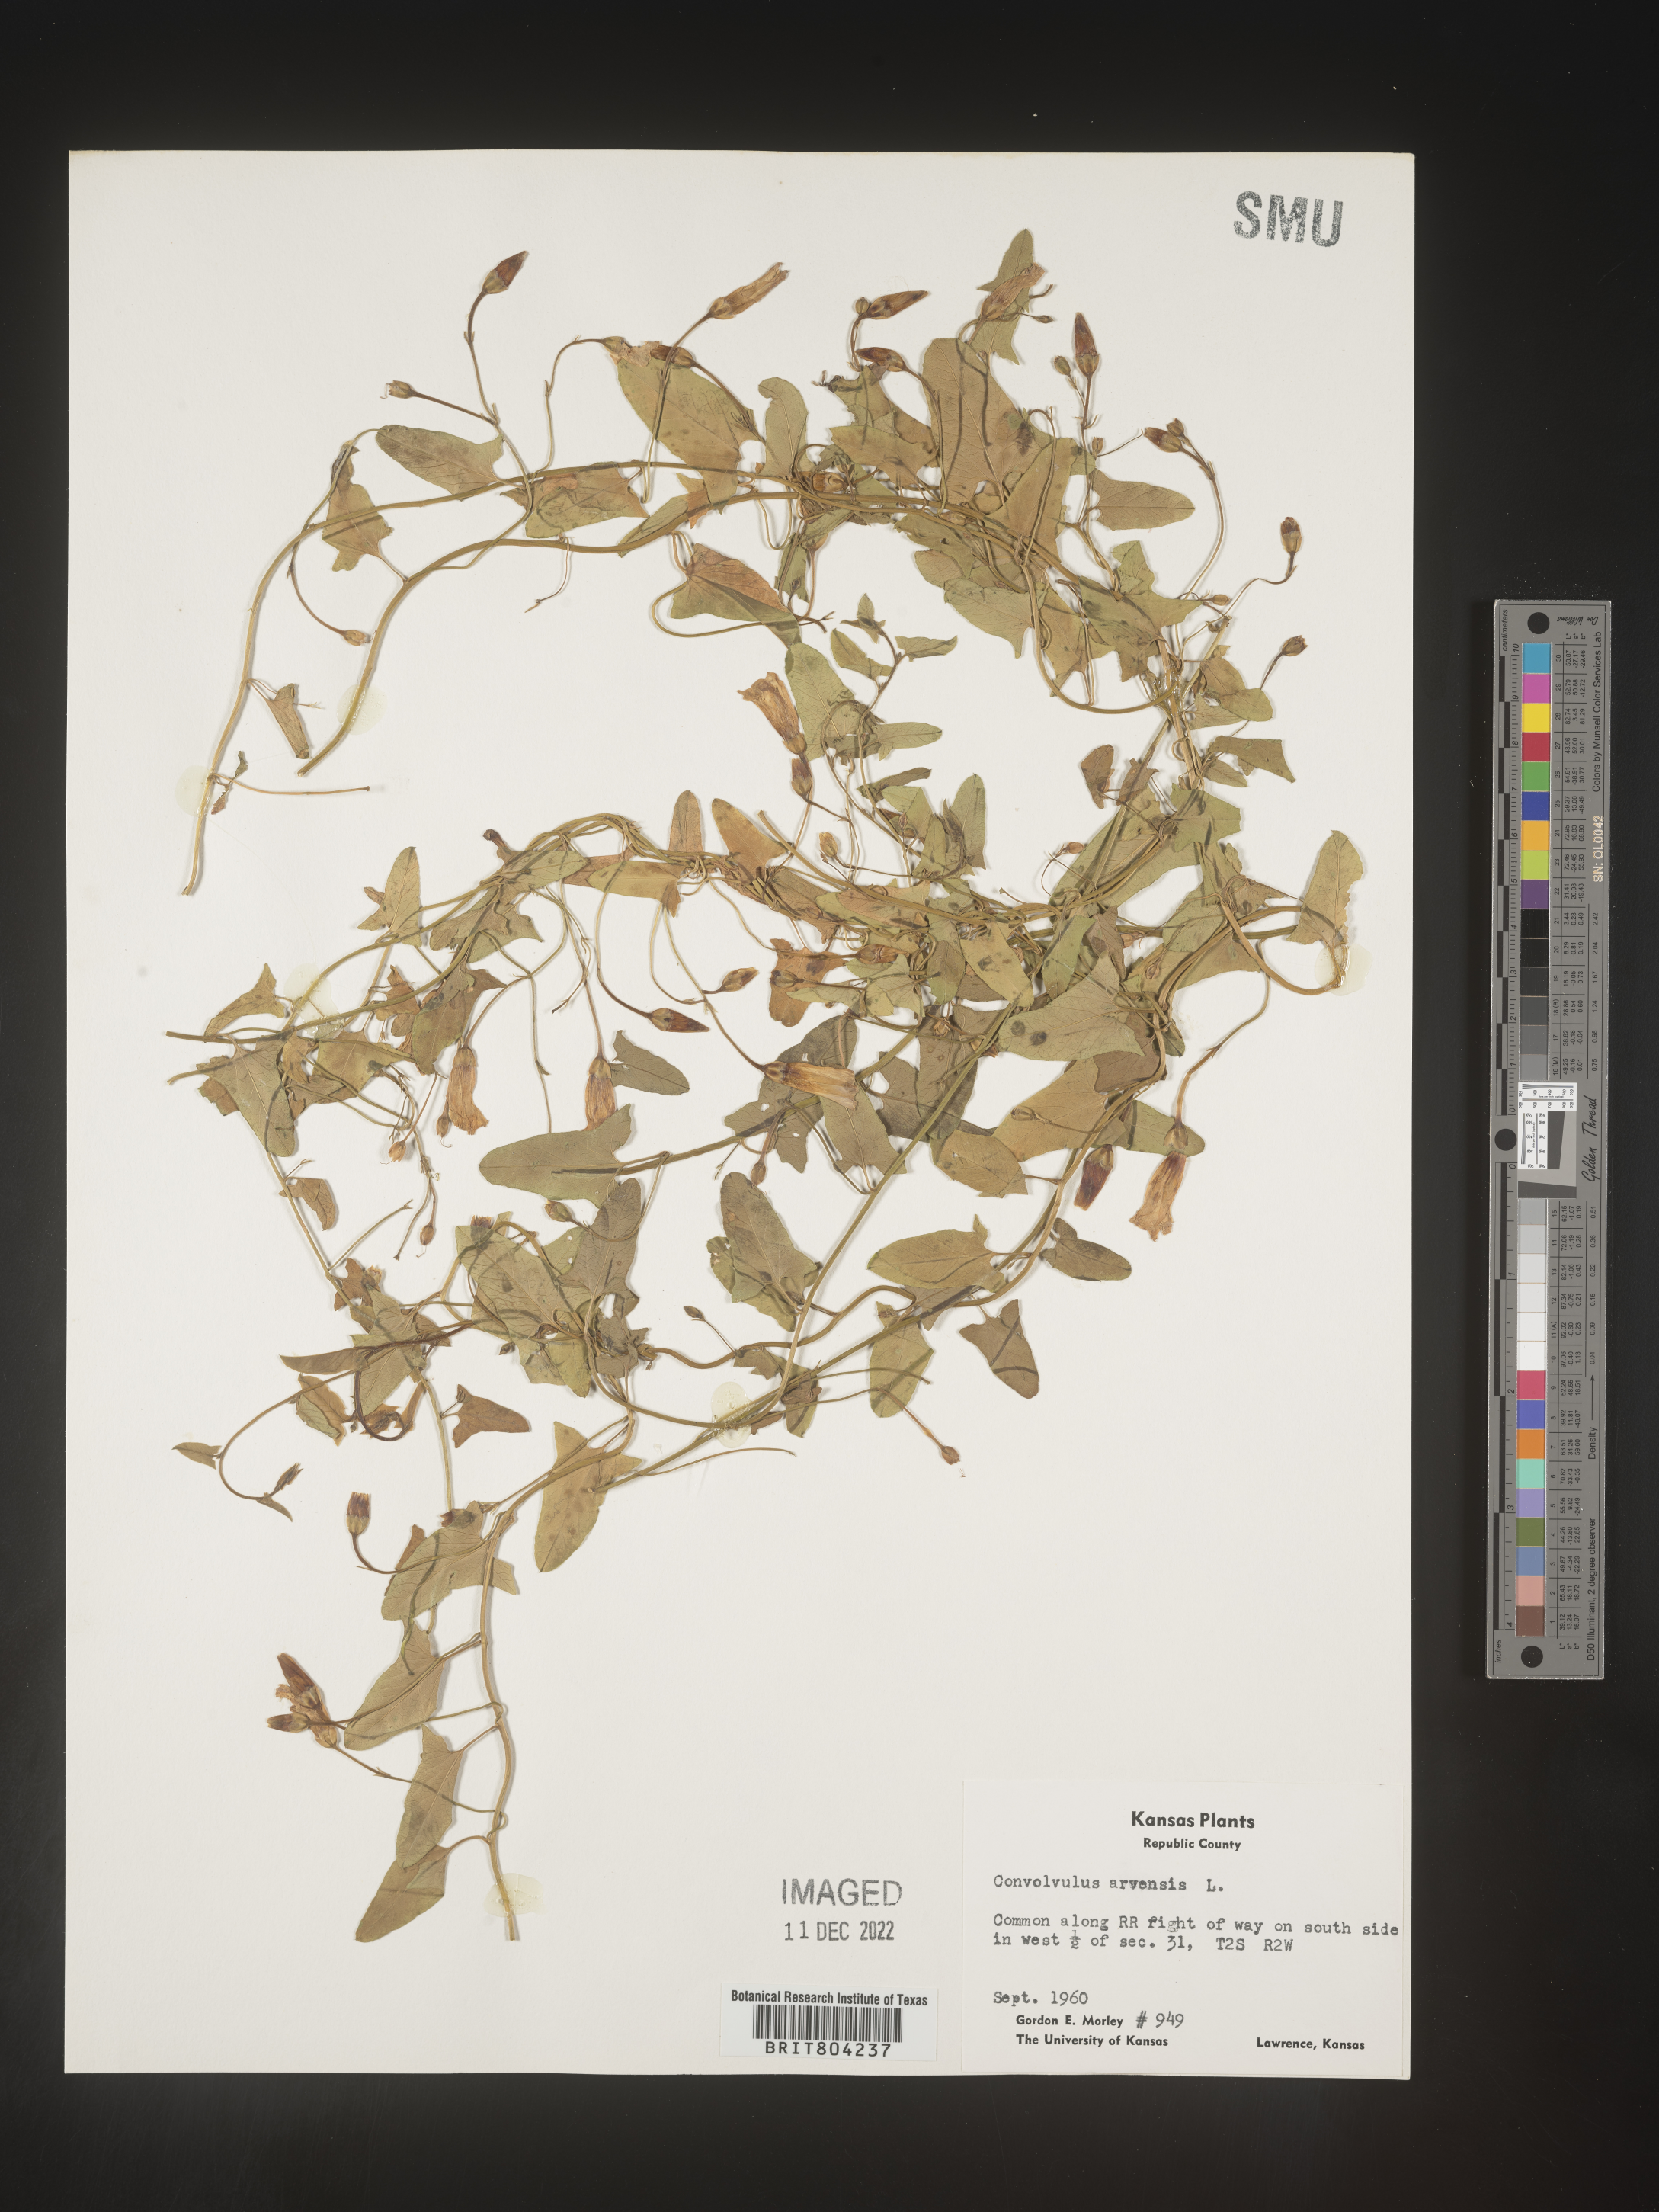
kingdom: Plantae
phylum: Tracheophyta
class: Magnoliopsida
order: Solanales
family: Convolvulaceae
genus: Convolvulus
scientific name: Convolvulus arvensis
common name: Field bindweed
